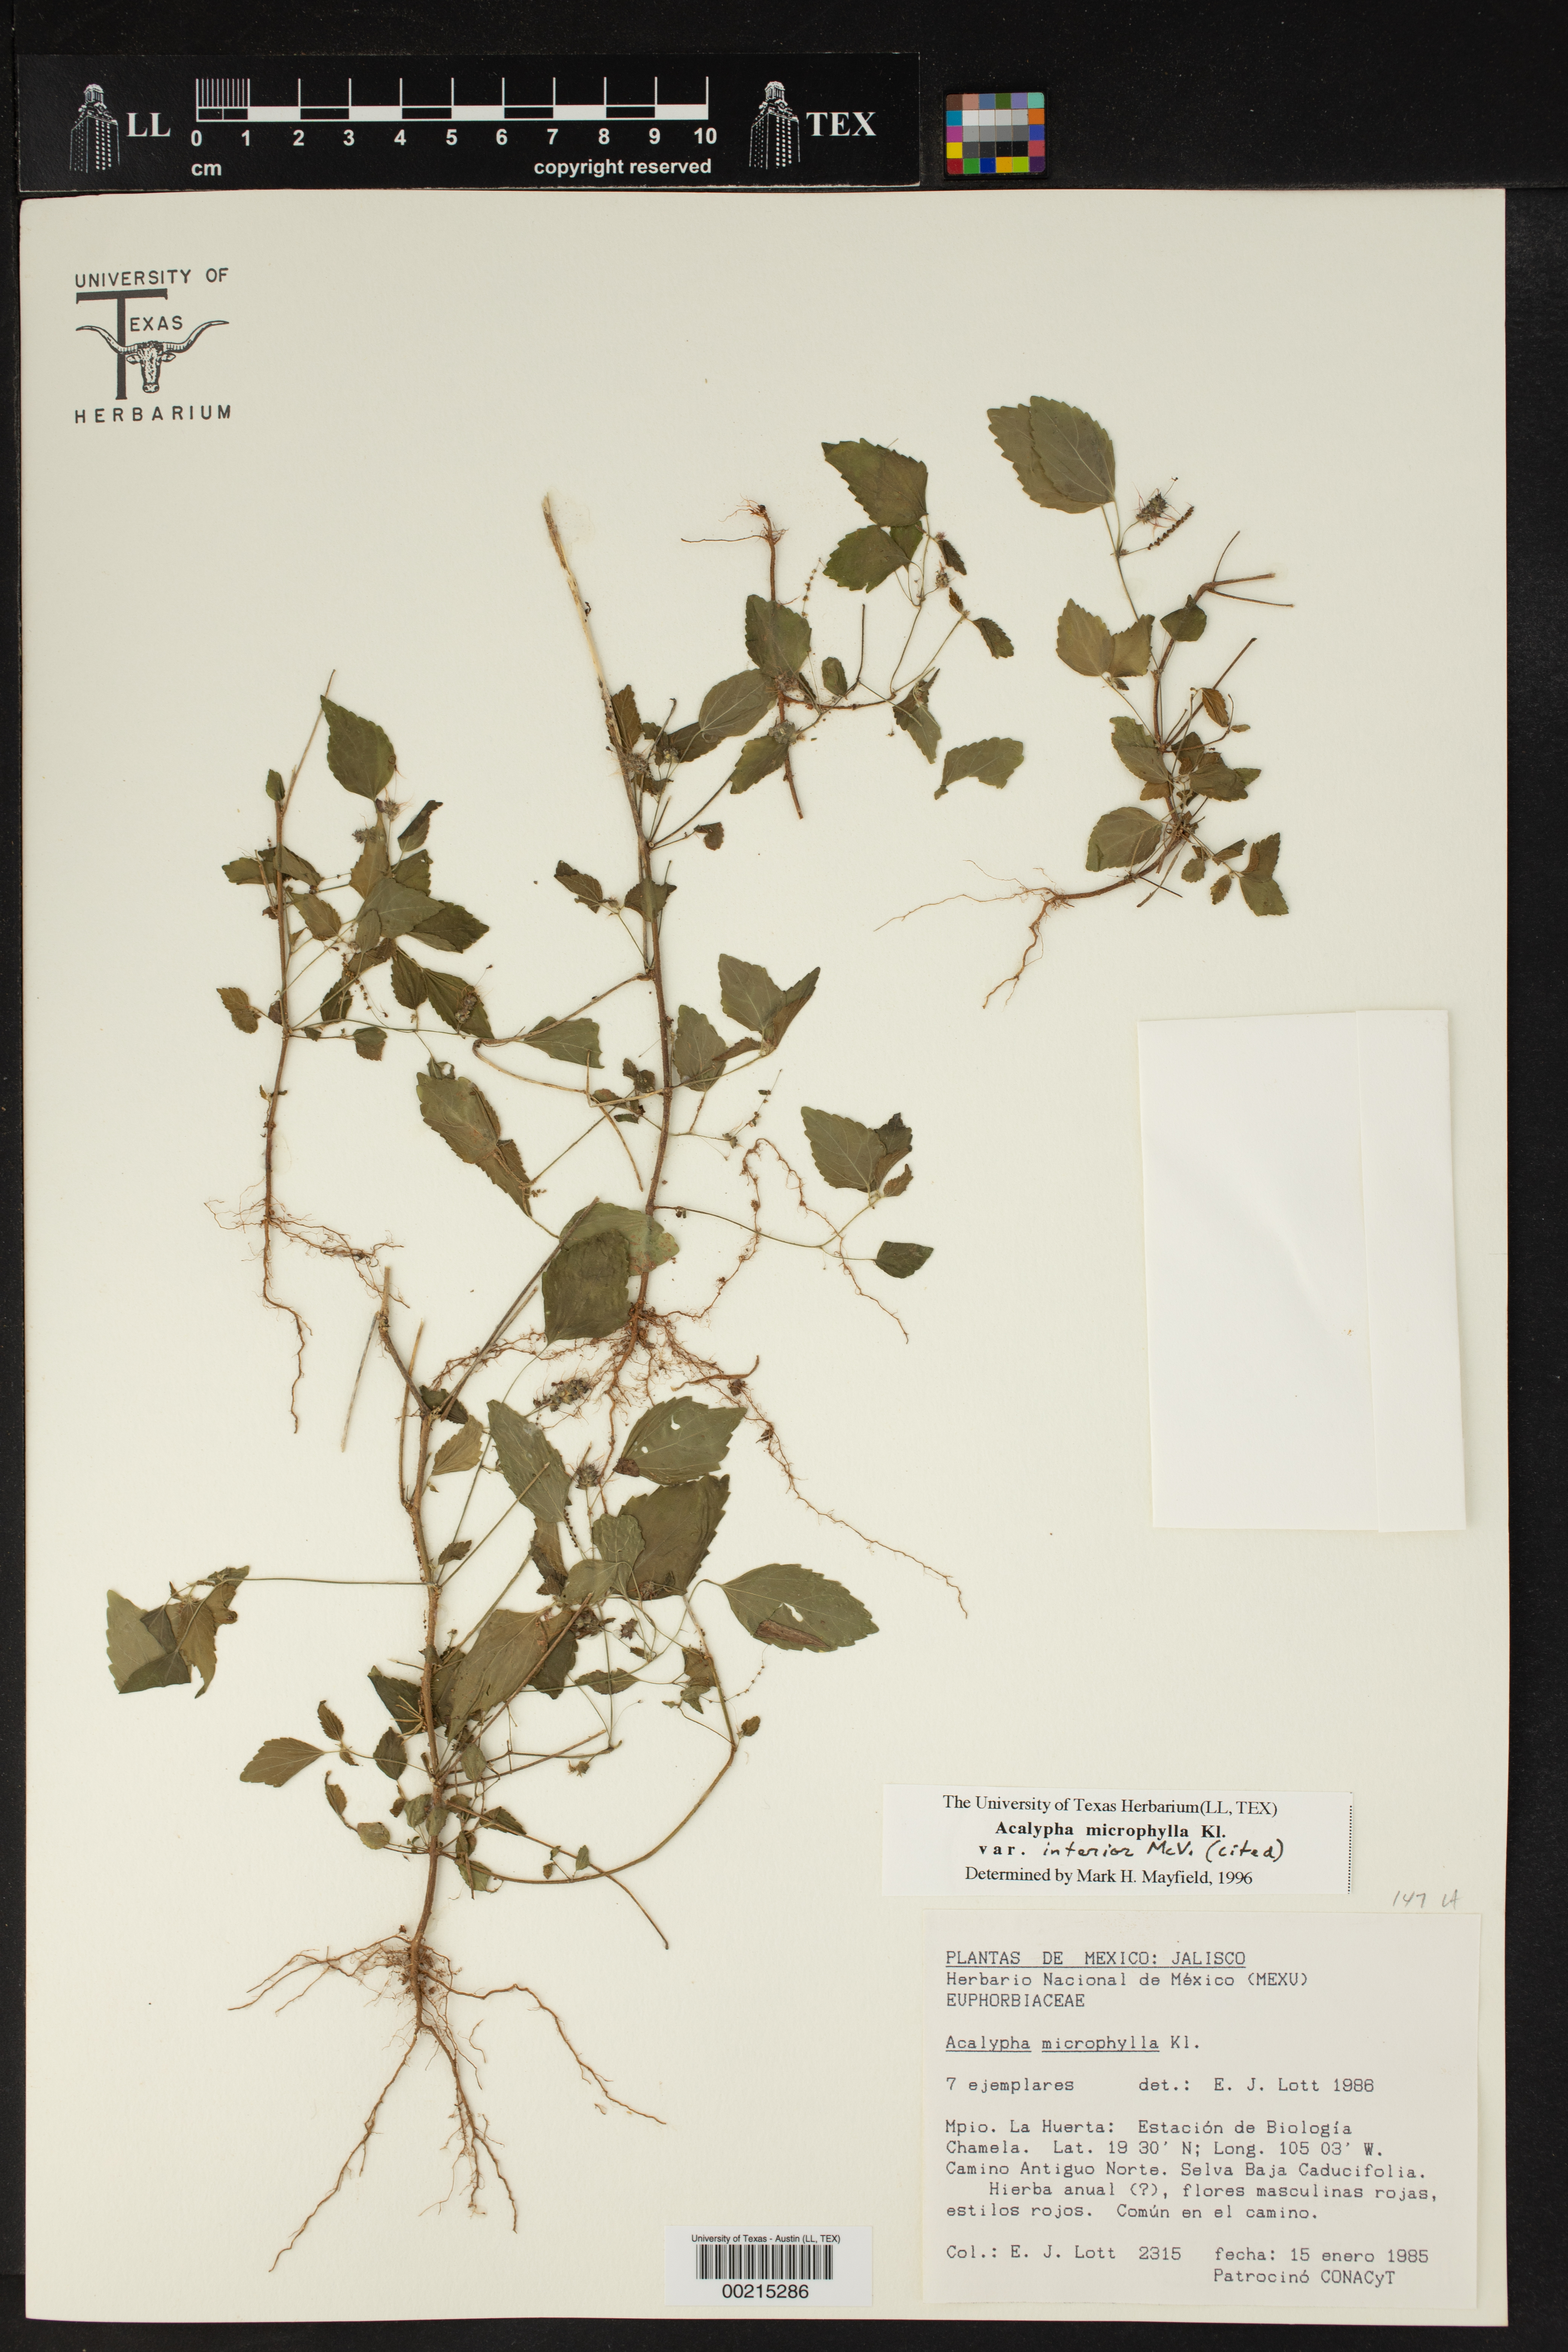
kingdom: Plantae
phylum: Tracheophyta
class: Magnoliopsida
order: Malpighiales
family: Euphorbiaceae
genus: Acalypha
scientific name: Acalypha microphylla
